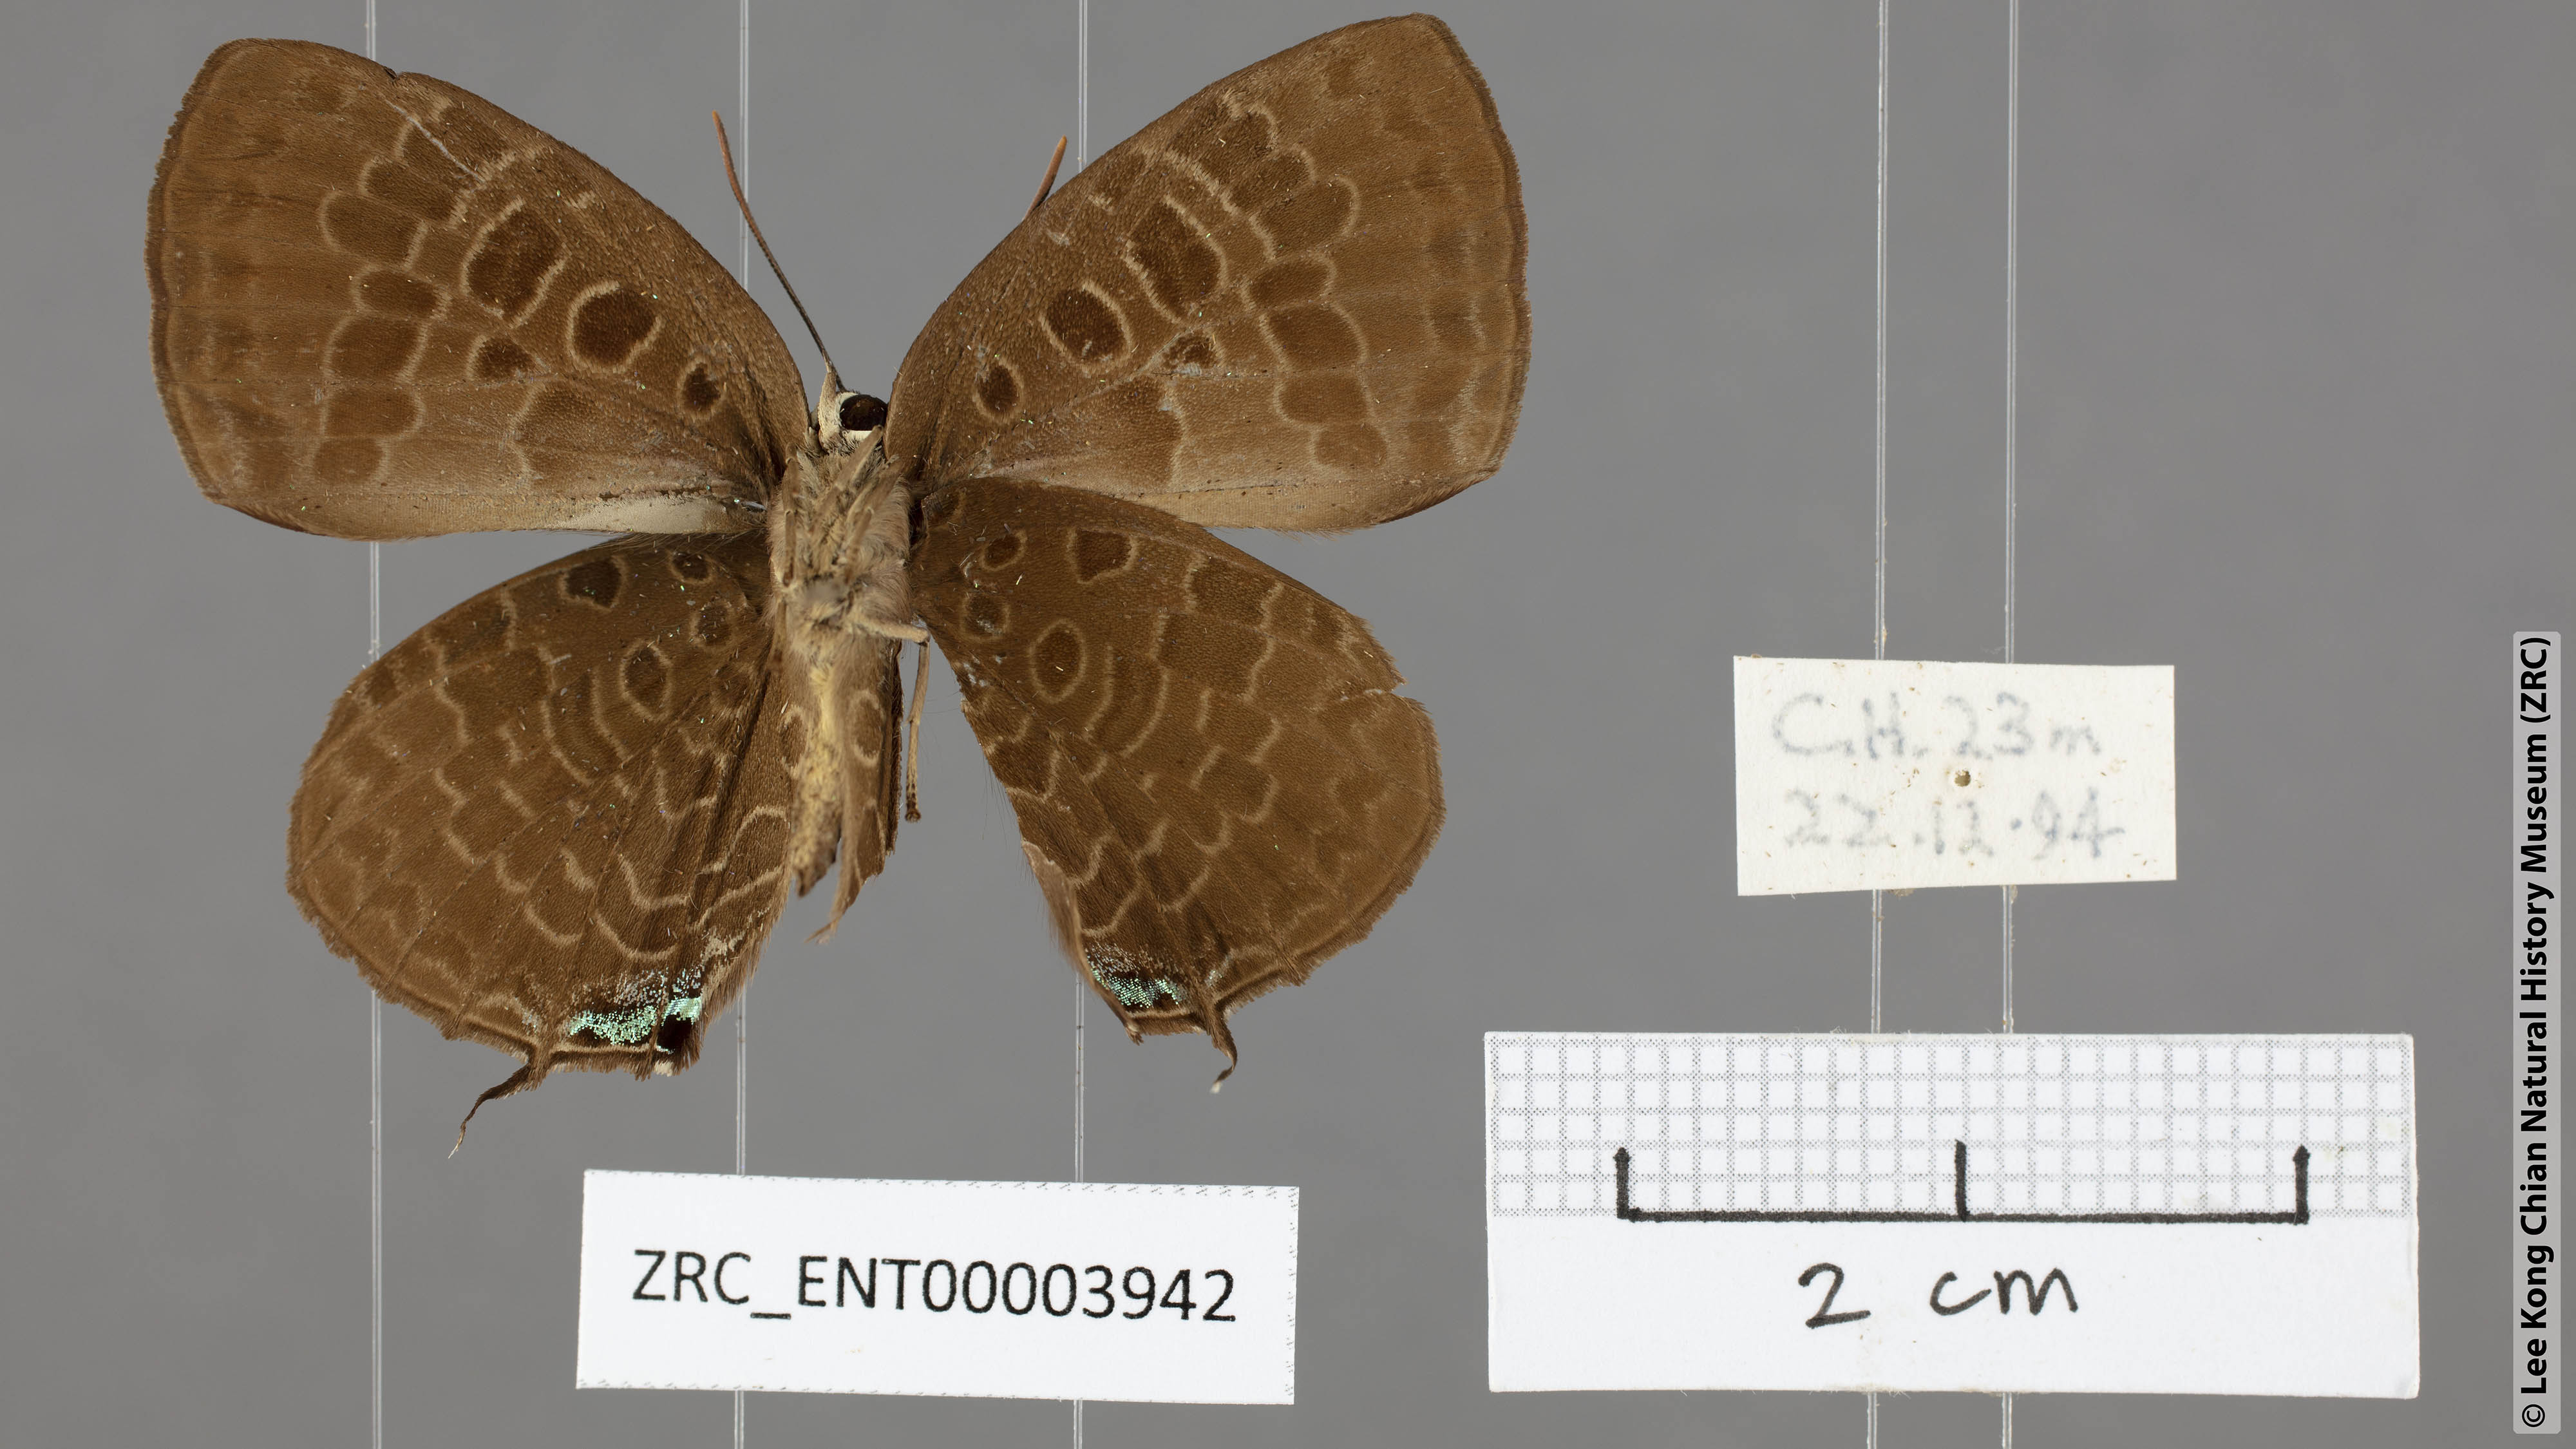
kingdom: Animalia
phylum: Arthropoda
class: Insecta
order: Lepidoptera
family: Lycaenidae
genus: Arhopala
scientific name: Arhopala horsfieldi
